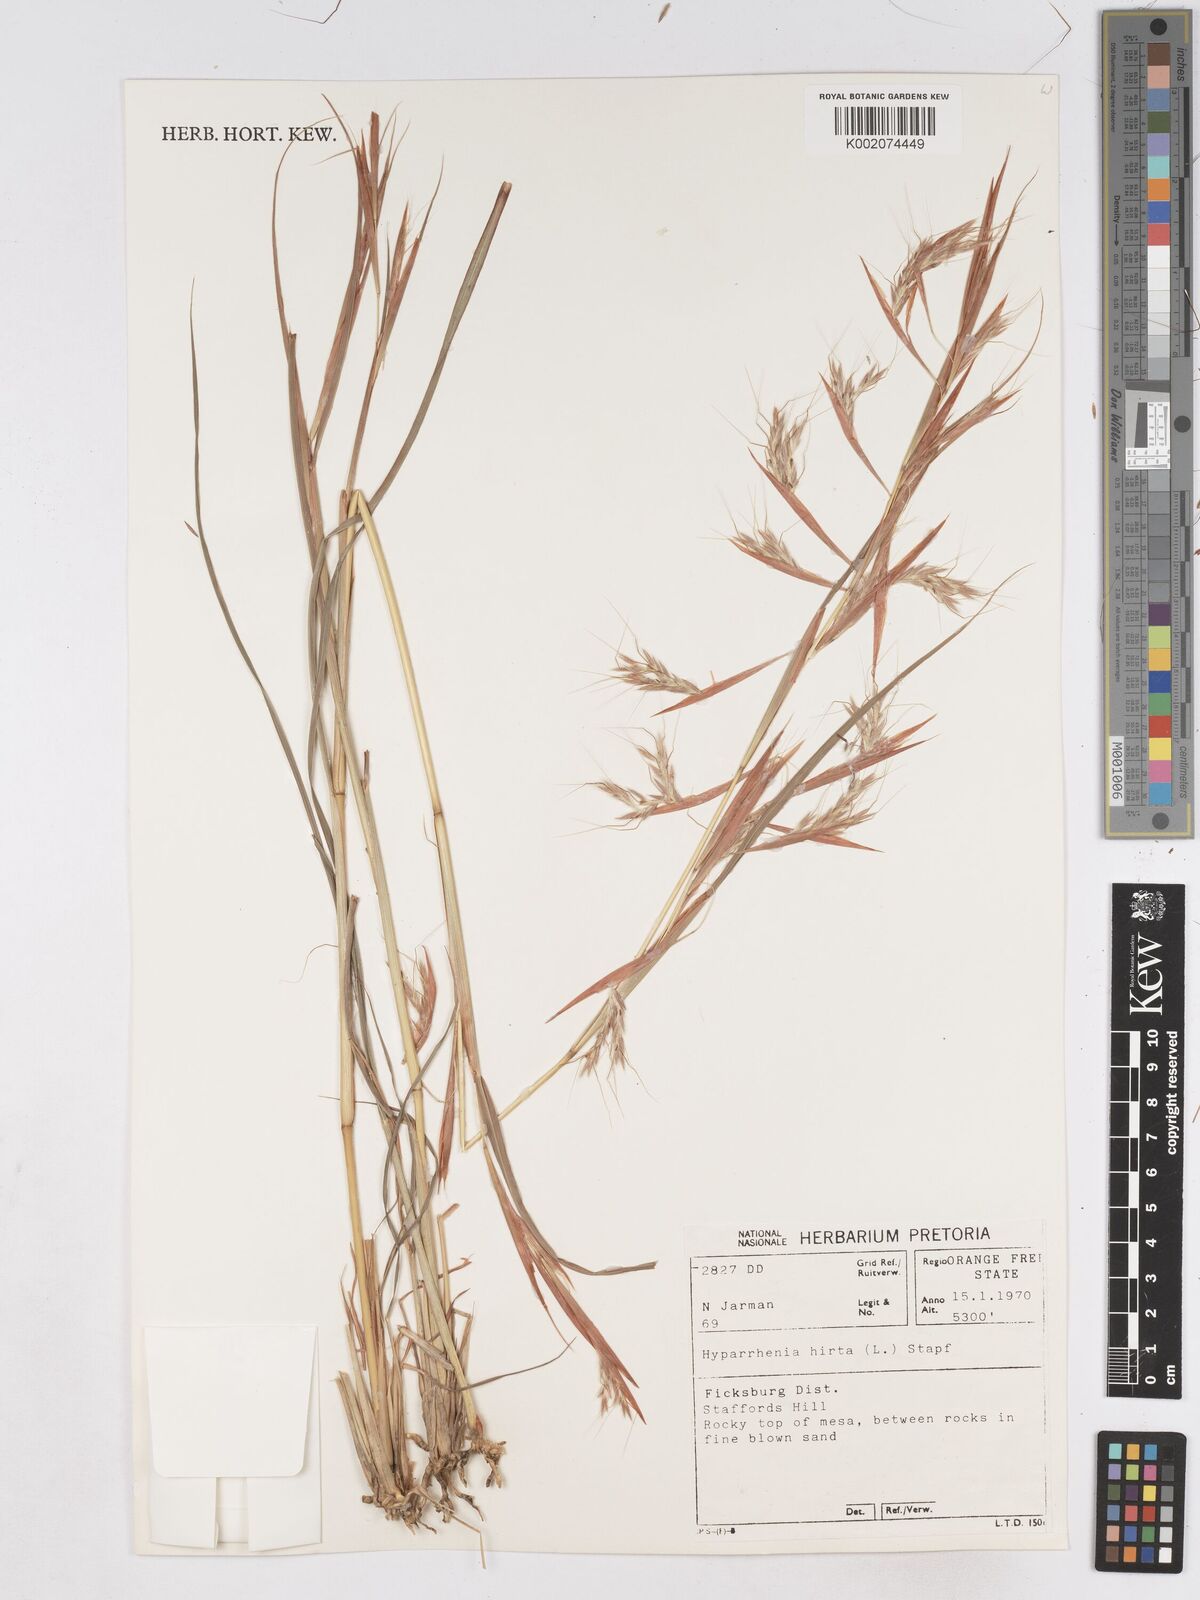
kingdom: Plantae
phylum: Tracheophyta
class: Liliopsida
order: Poales
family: Poaceae
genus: Hyparrhenia
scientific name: Hyparrhenia hirta
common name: Thatching grass
